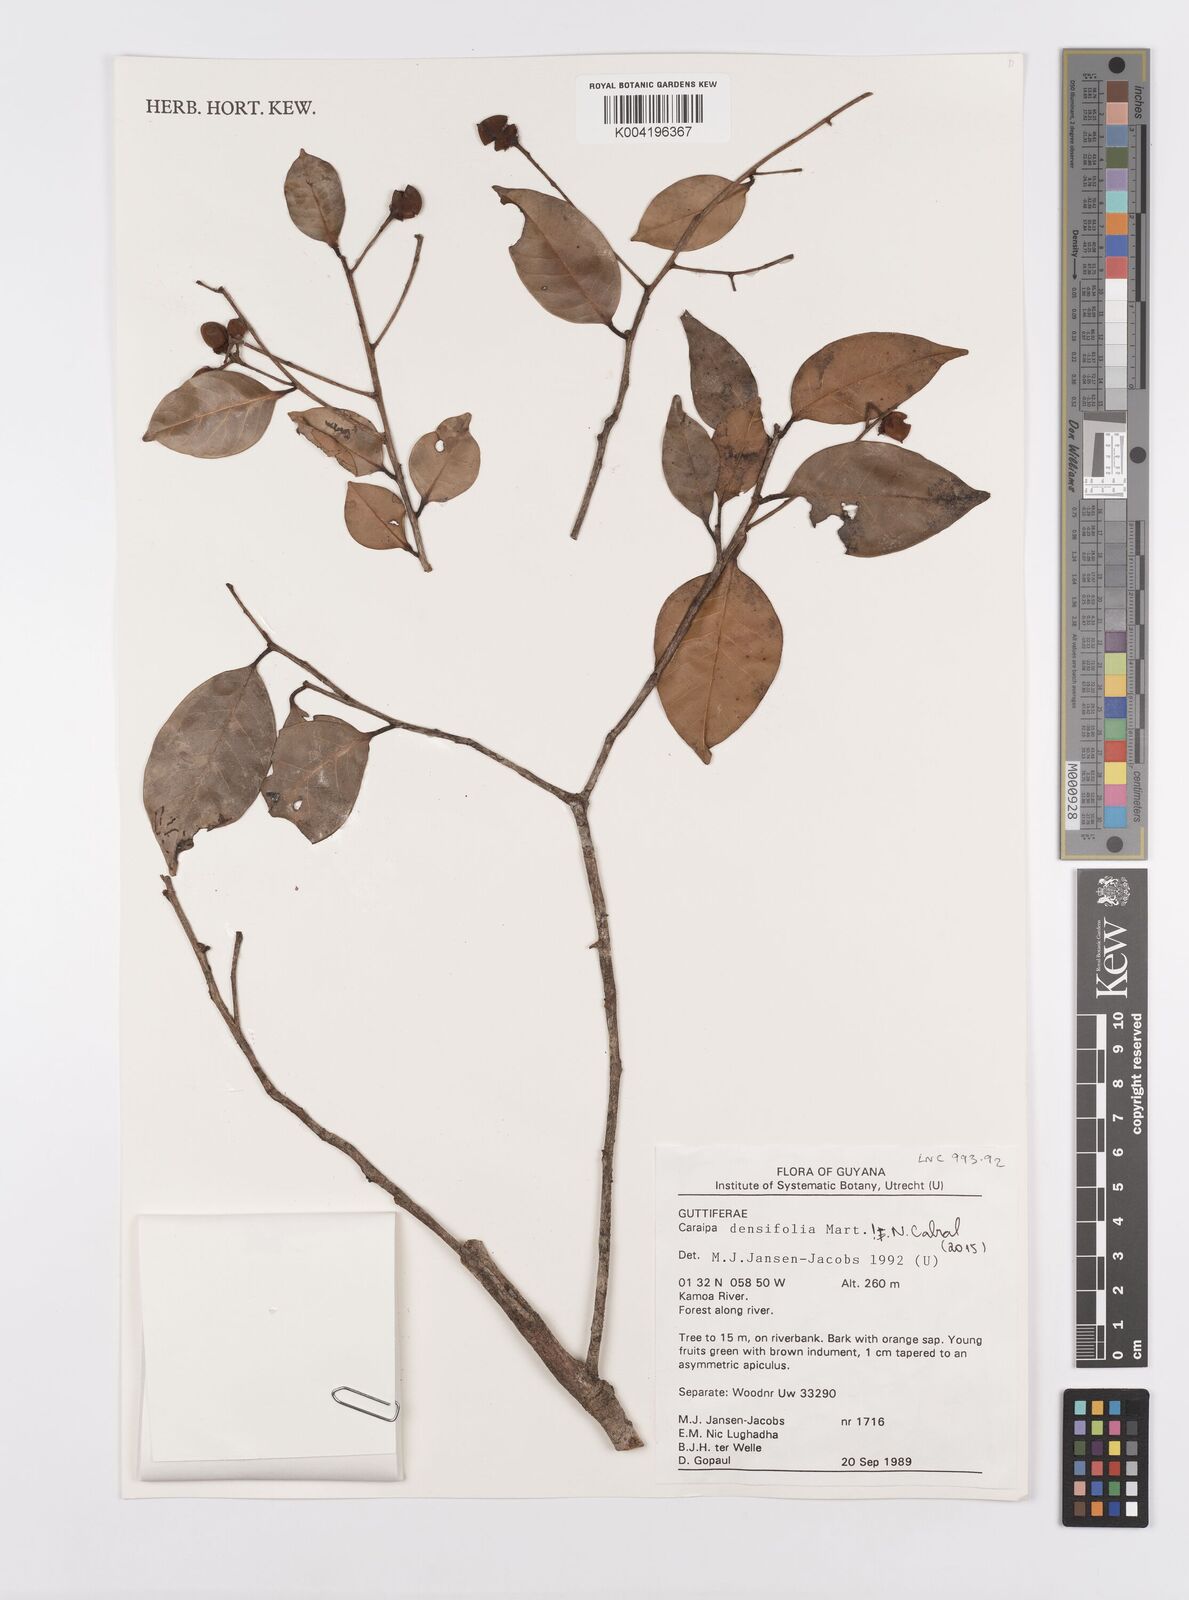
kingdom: Plantae
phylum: Tracheophyta
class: Magnoliopsida
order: Malpighiales
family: Calophyllaceae
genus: Caraipa
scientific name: Caraipa densifolia
